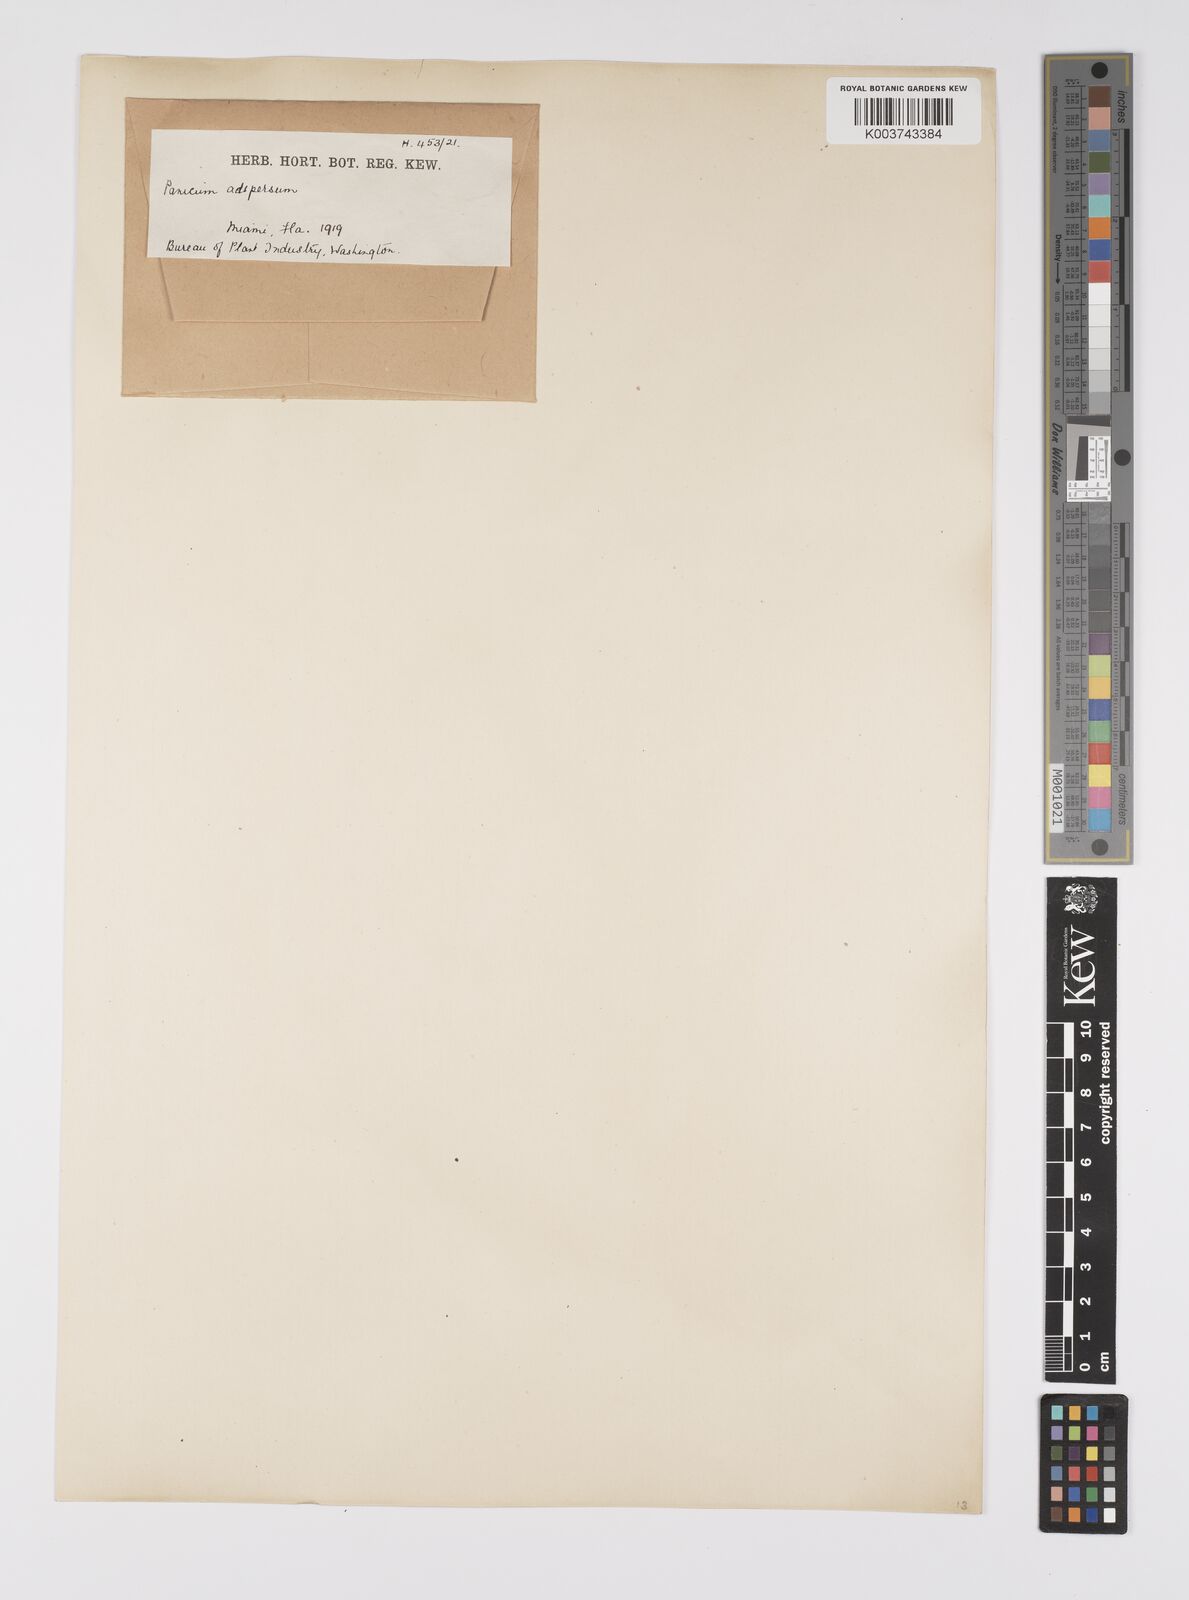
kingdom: Plantae
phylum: Tracheophyta
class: Liliopsida
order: Poales
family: Poaceae
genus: Urochloa
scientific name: Urochloa adspersa
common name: Dominican signal grass
